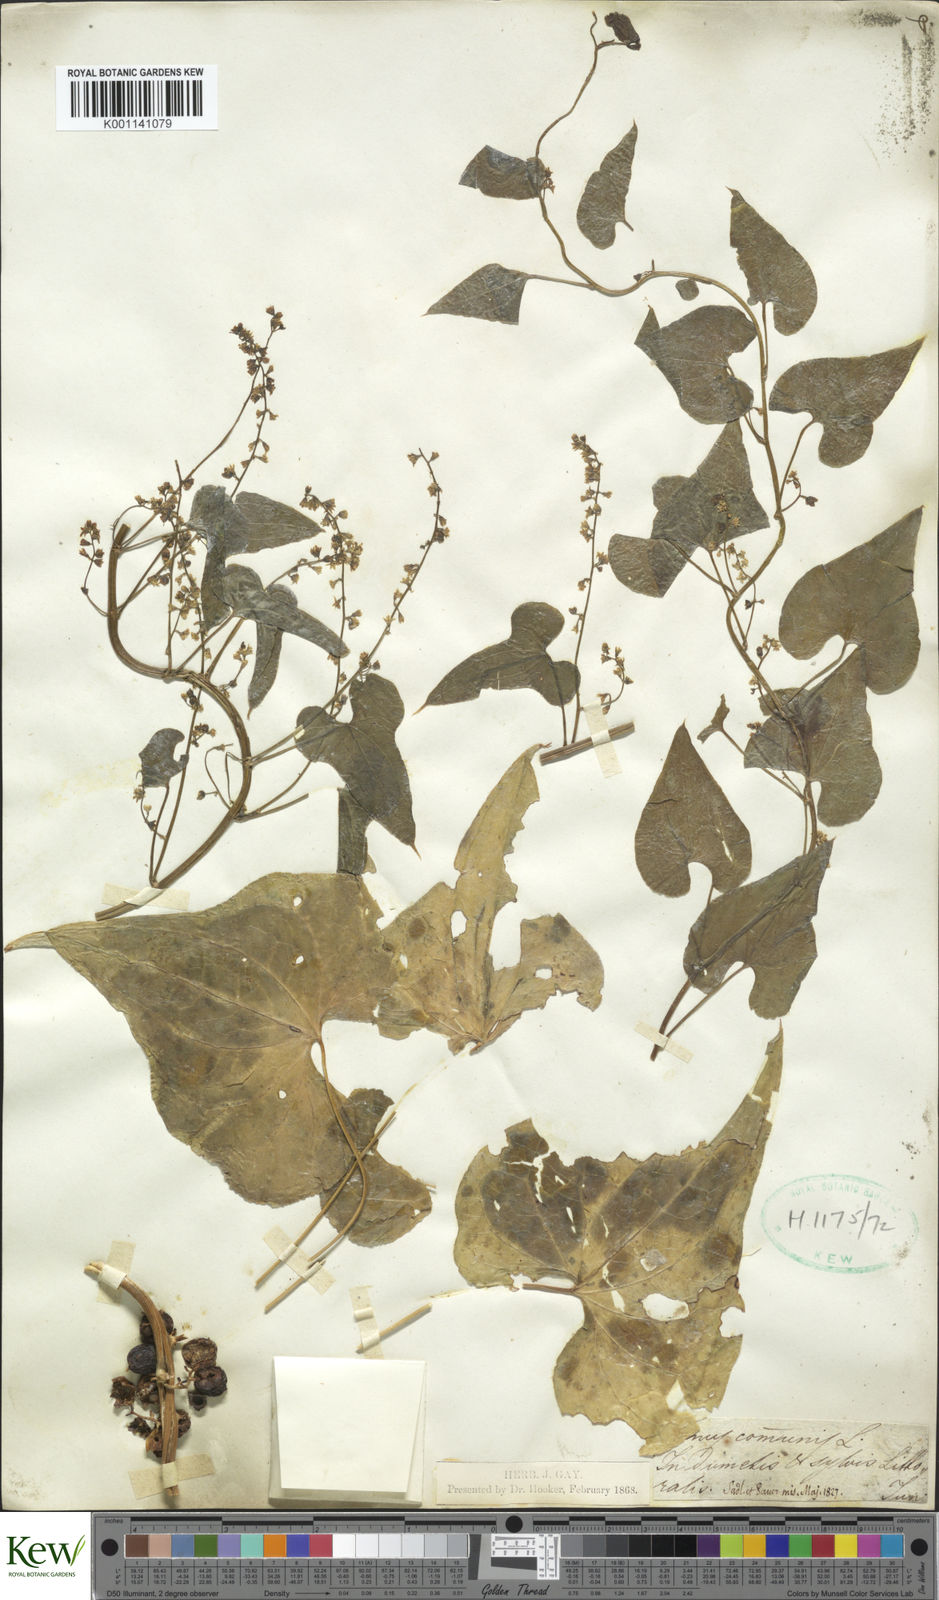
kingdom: Plantae
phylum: Tracheophyta
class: Liliopsida
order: Dioscoreales
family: Dioscoreaceae
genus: Dioscorea
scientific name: Dioscorea communis
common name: Black-bindweed
